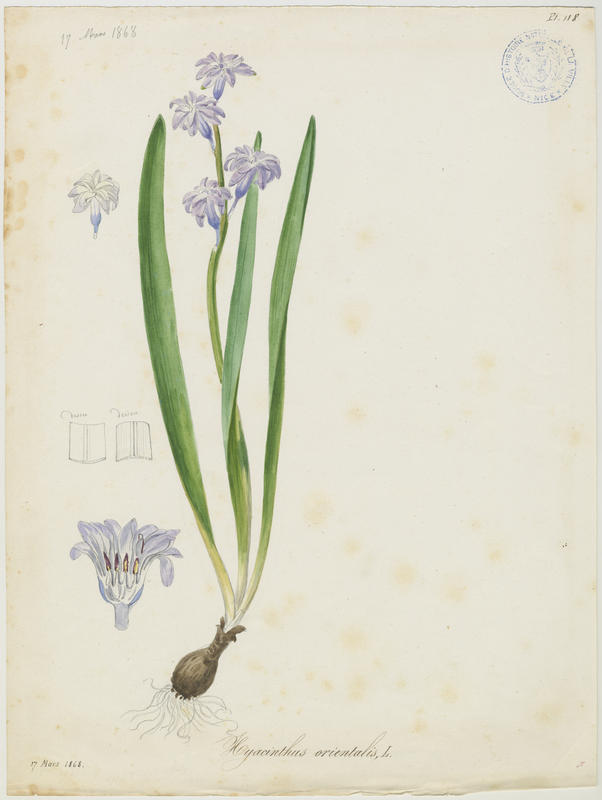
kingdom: Plantae
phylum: Tracheophyta
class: Liliopsida
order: Asparagales
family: Asparagaceae
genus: Hyacinthus
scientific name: Hyacinthus orientalis
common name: Hyacinth
